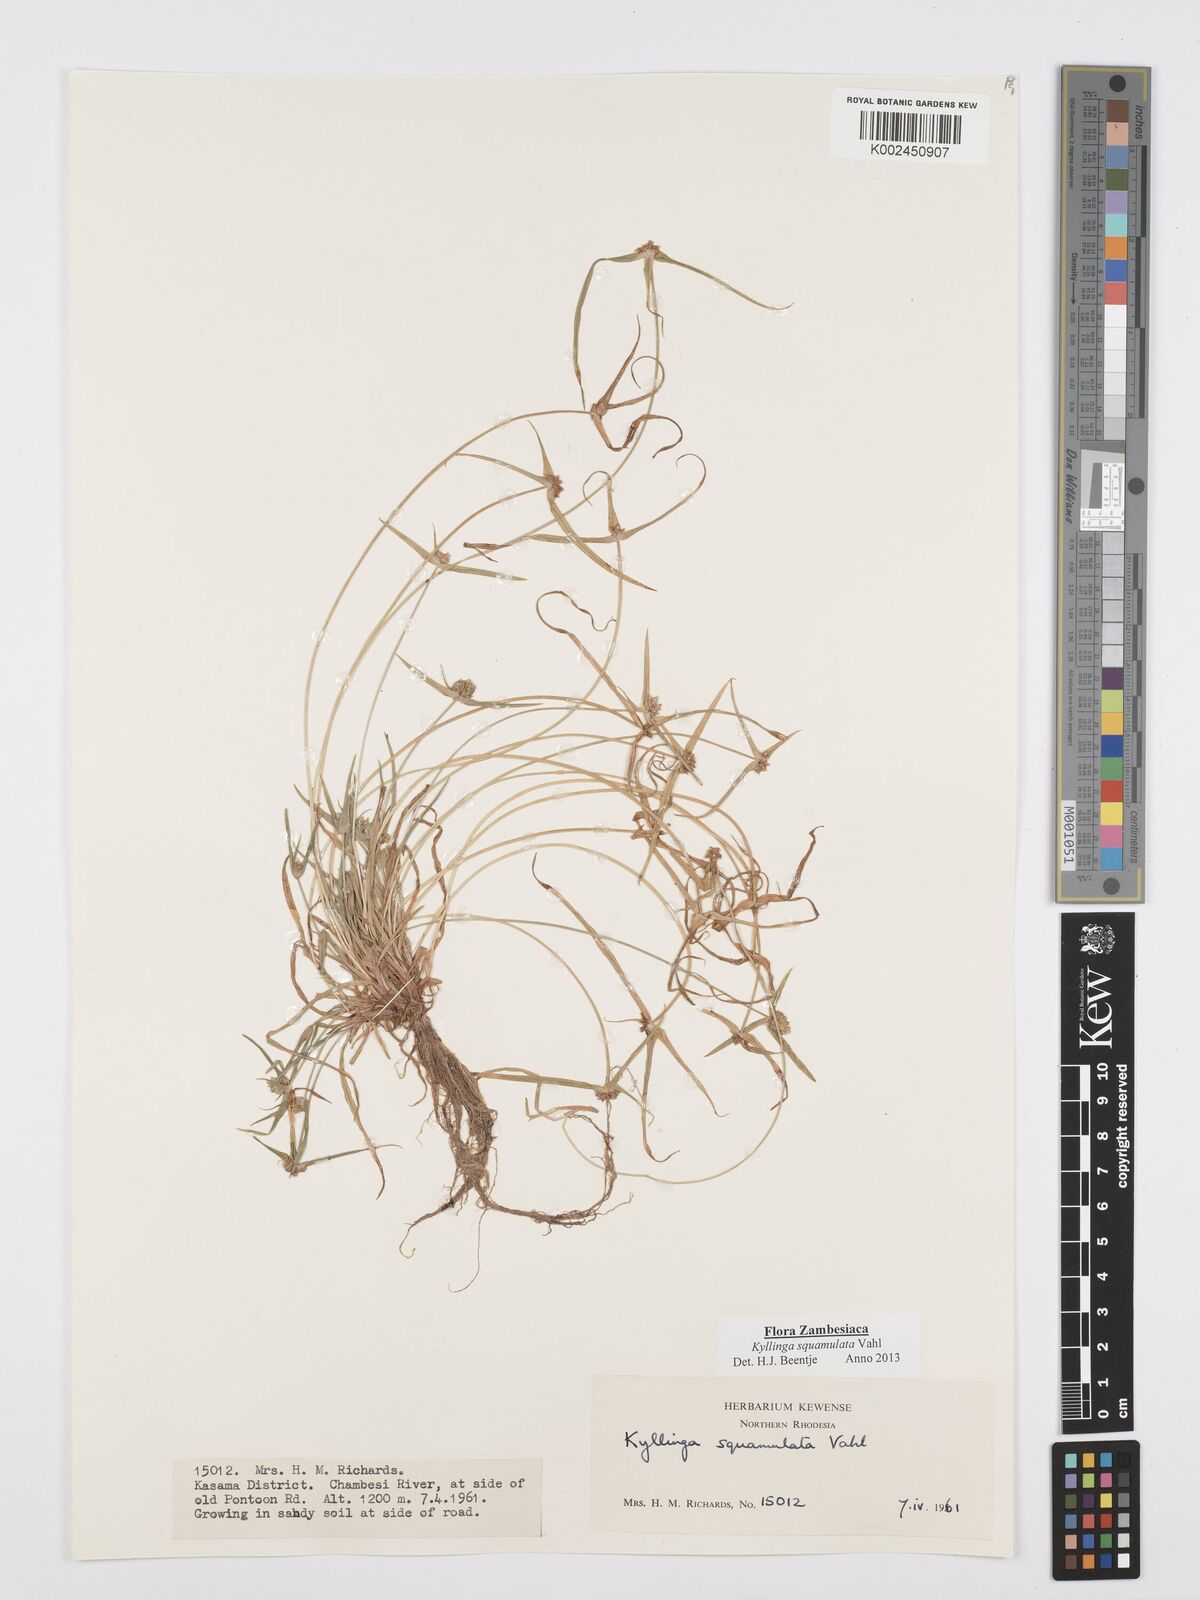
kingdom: Plantae
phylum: Tracheophyta
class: Liliopsida
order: Poales
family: Cyperaceae
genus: Cyperus
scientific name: Cyperus distans
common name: Slender cyperus
